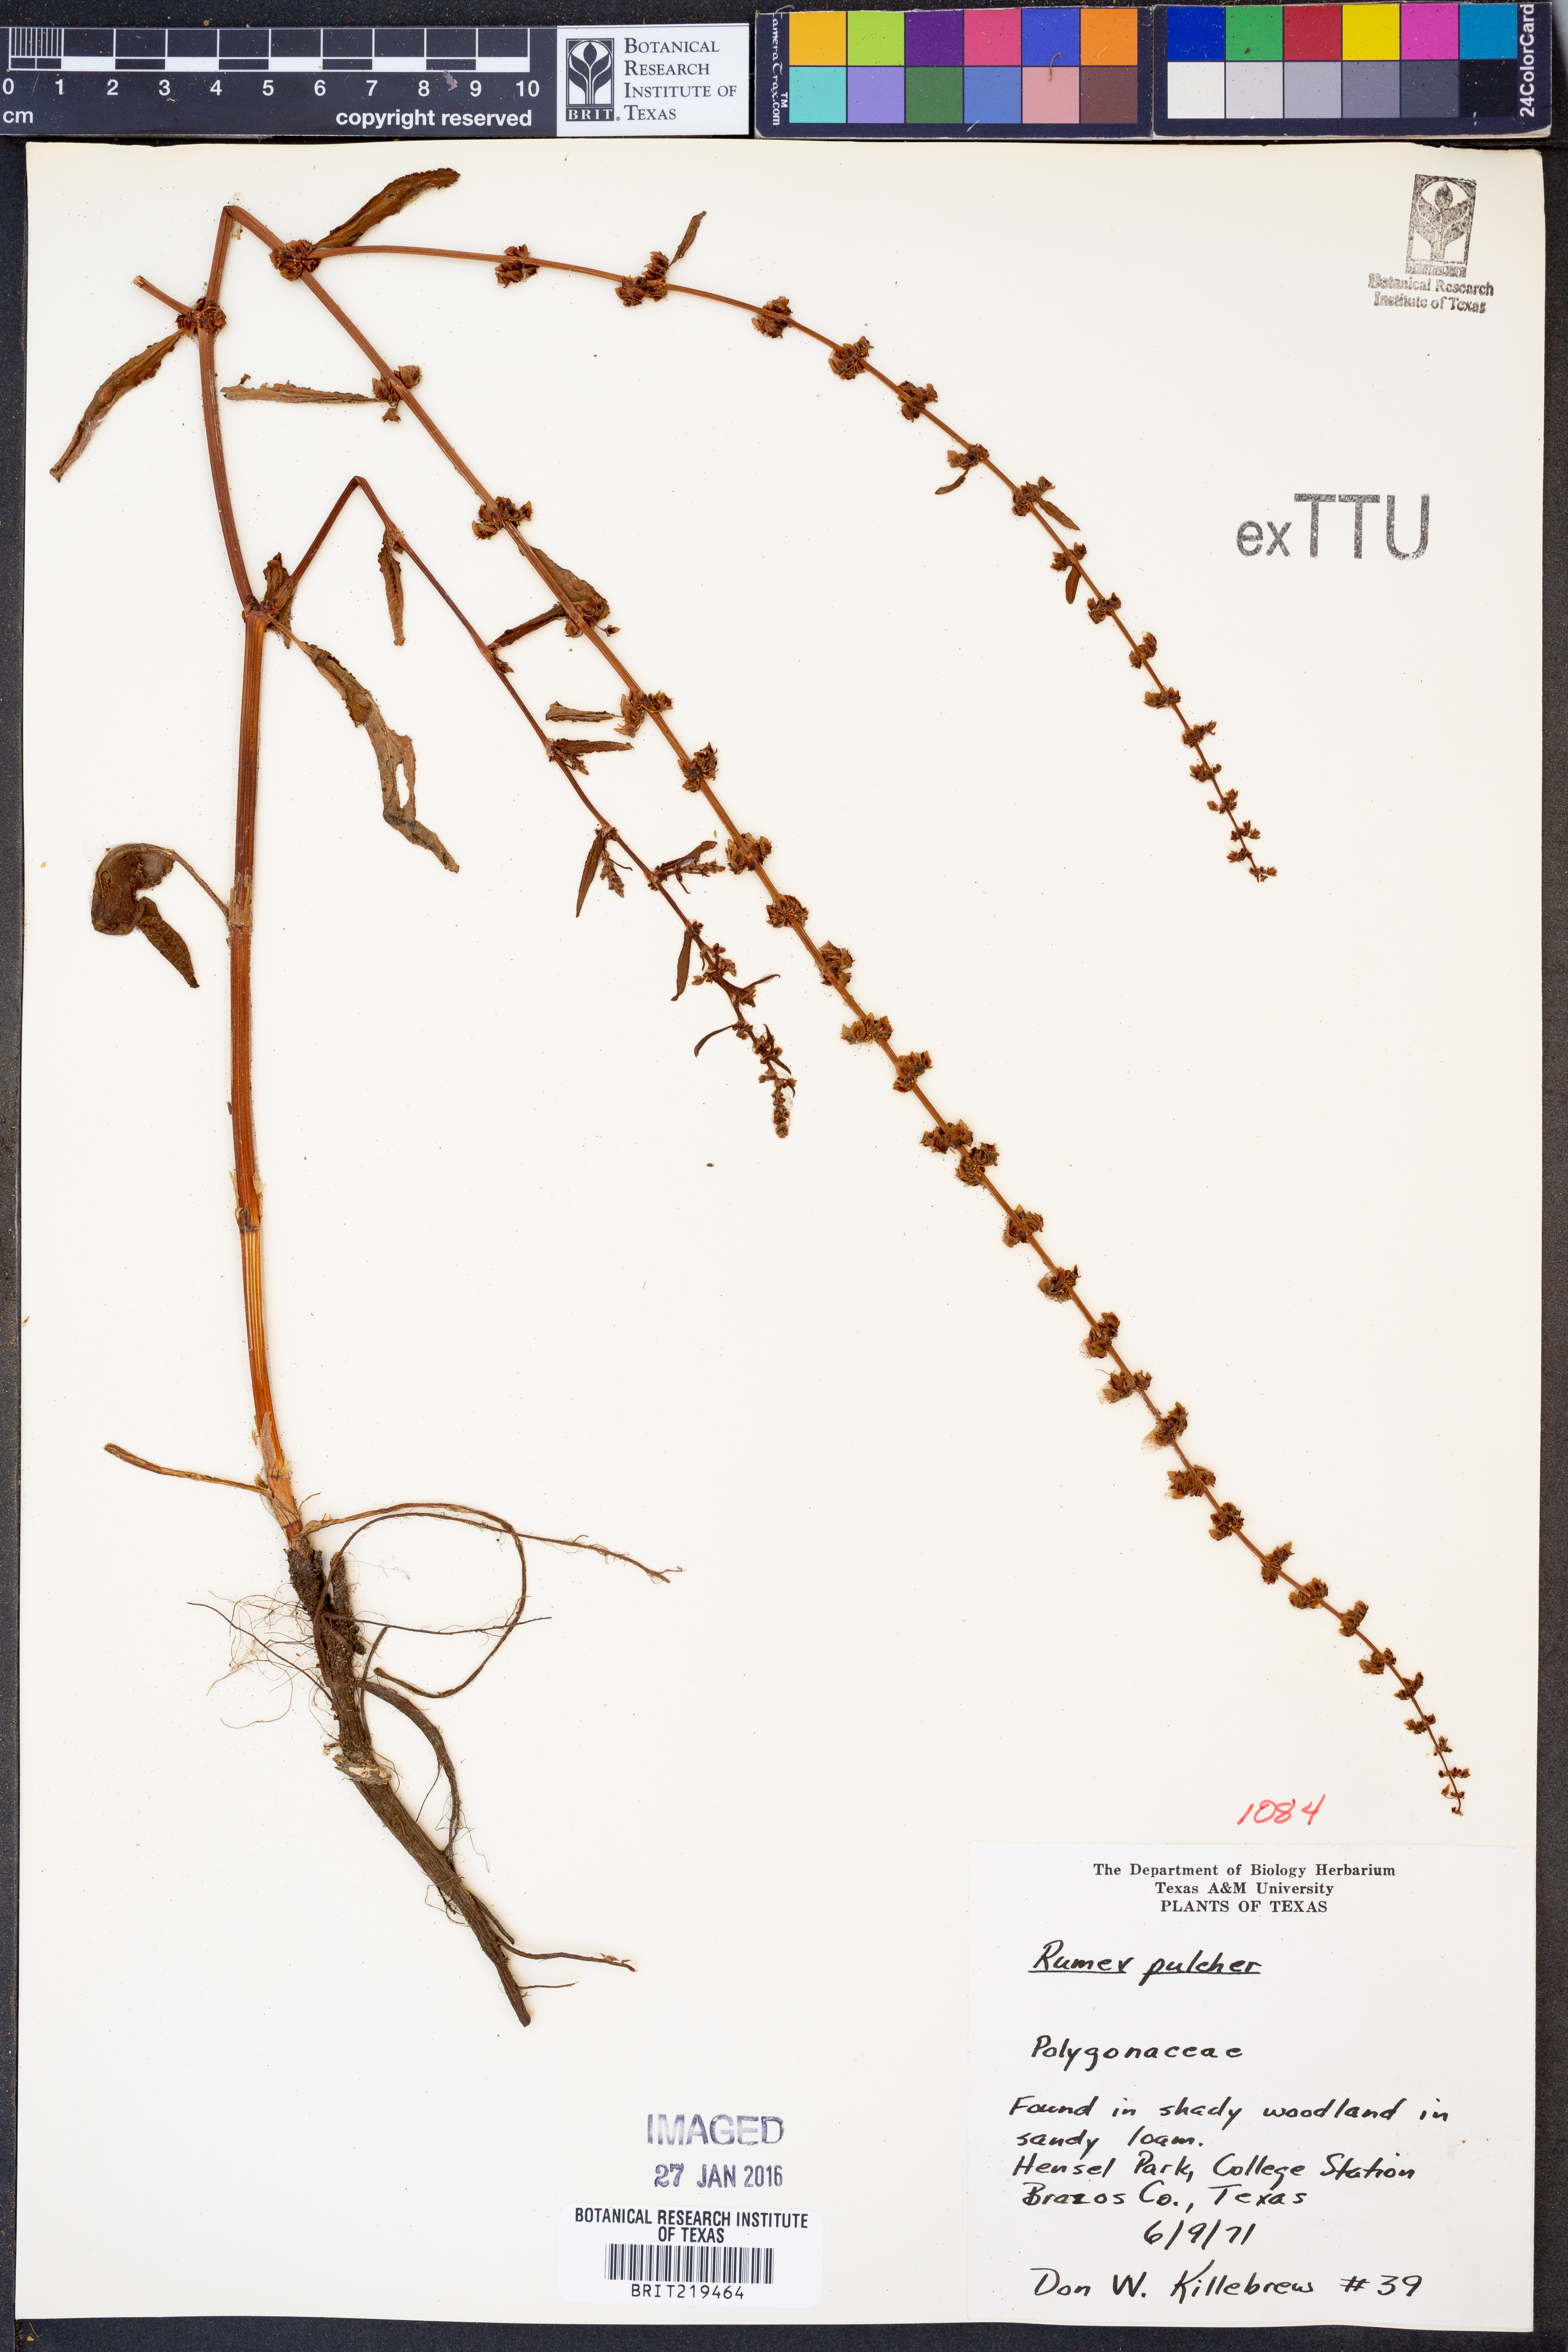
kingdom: Plantae
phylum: Tracheophyta
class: Magnoliopsida
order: Caryophyllales
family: Polygonaceae
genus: Rumex
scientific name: Rumex pulcher
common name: Fiddle dock
